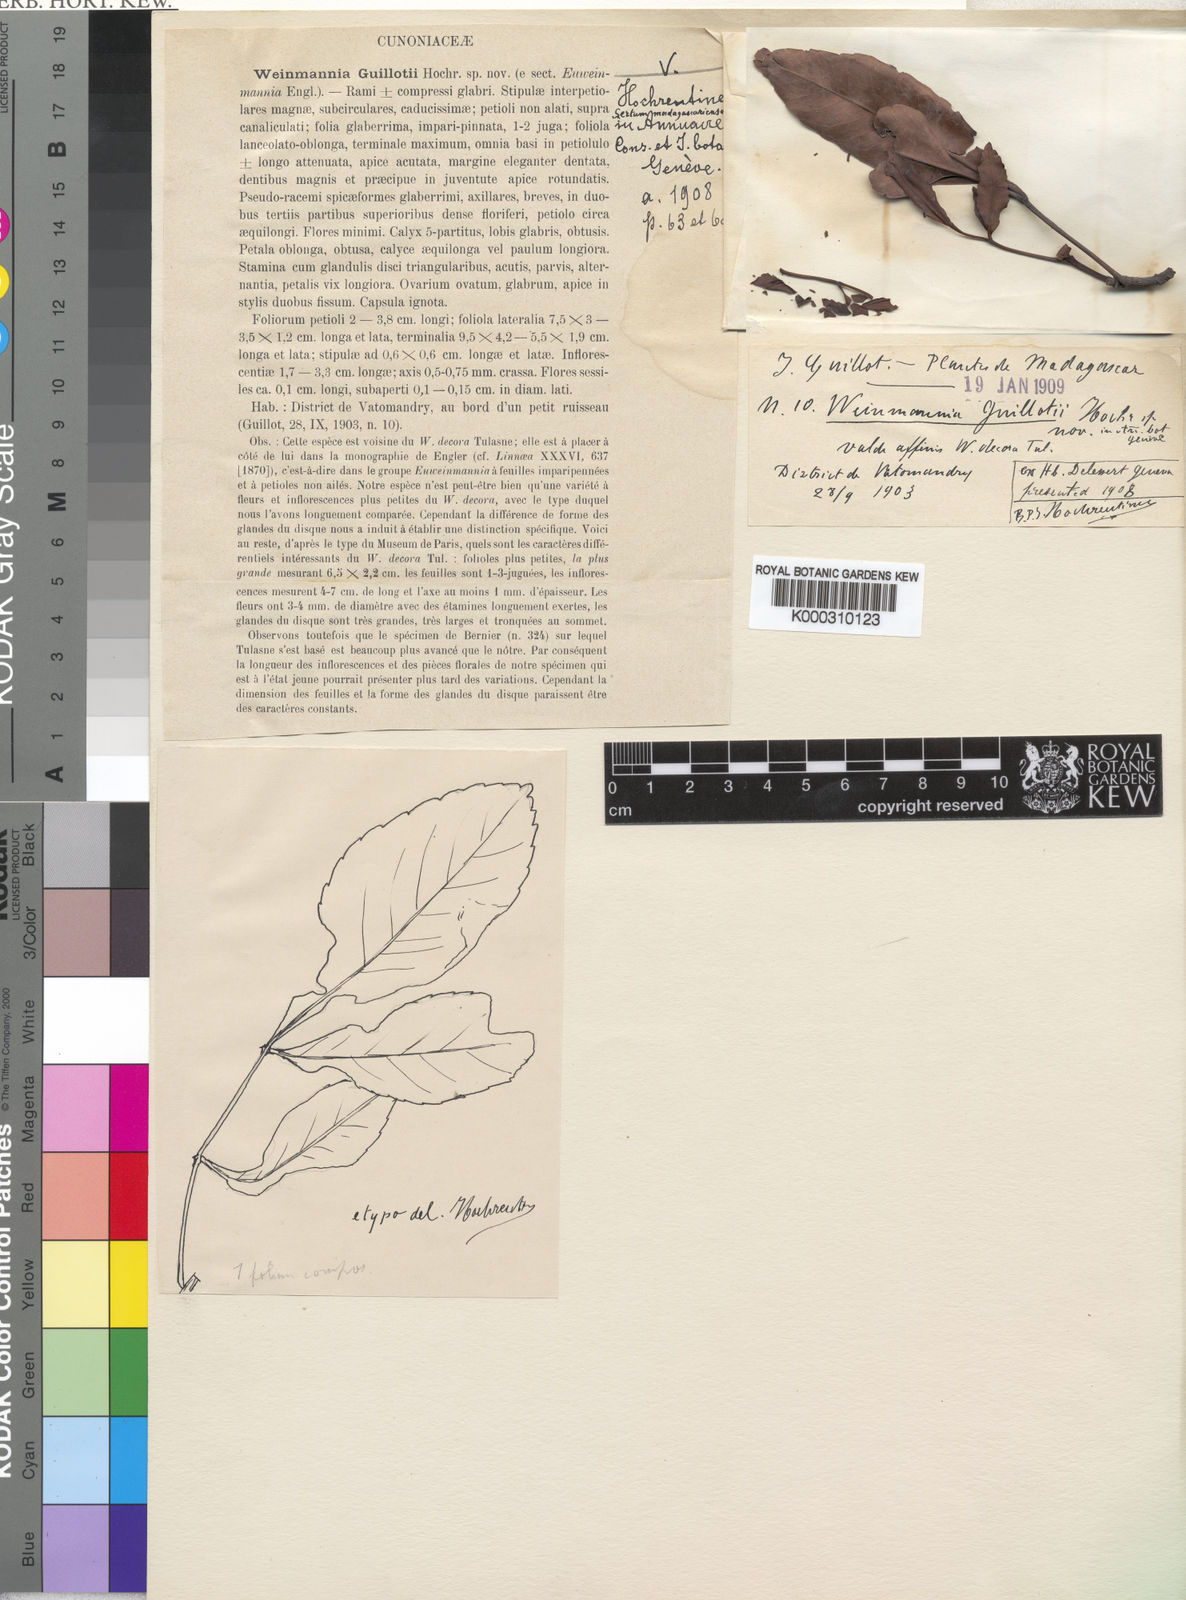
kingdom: Plantae
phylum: Tracheophyta
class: Magnoliopsida
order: Oxalidales
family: Cunoniaceae
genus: Pterophylla
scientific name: Pterophylla decora
